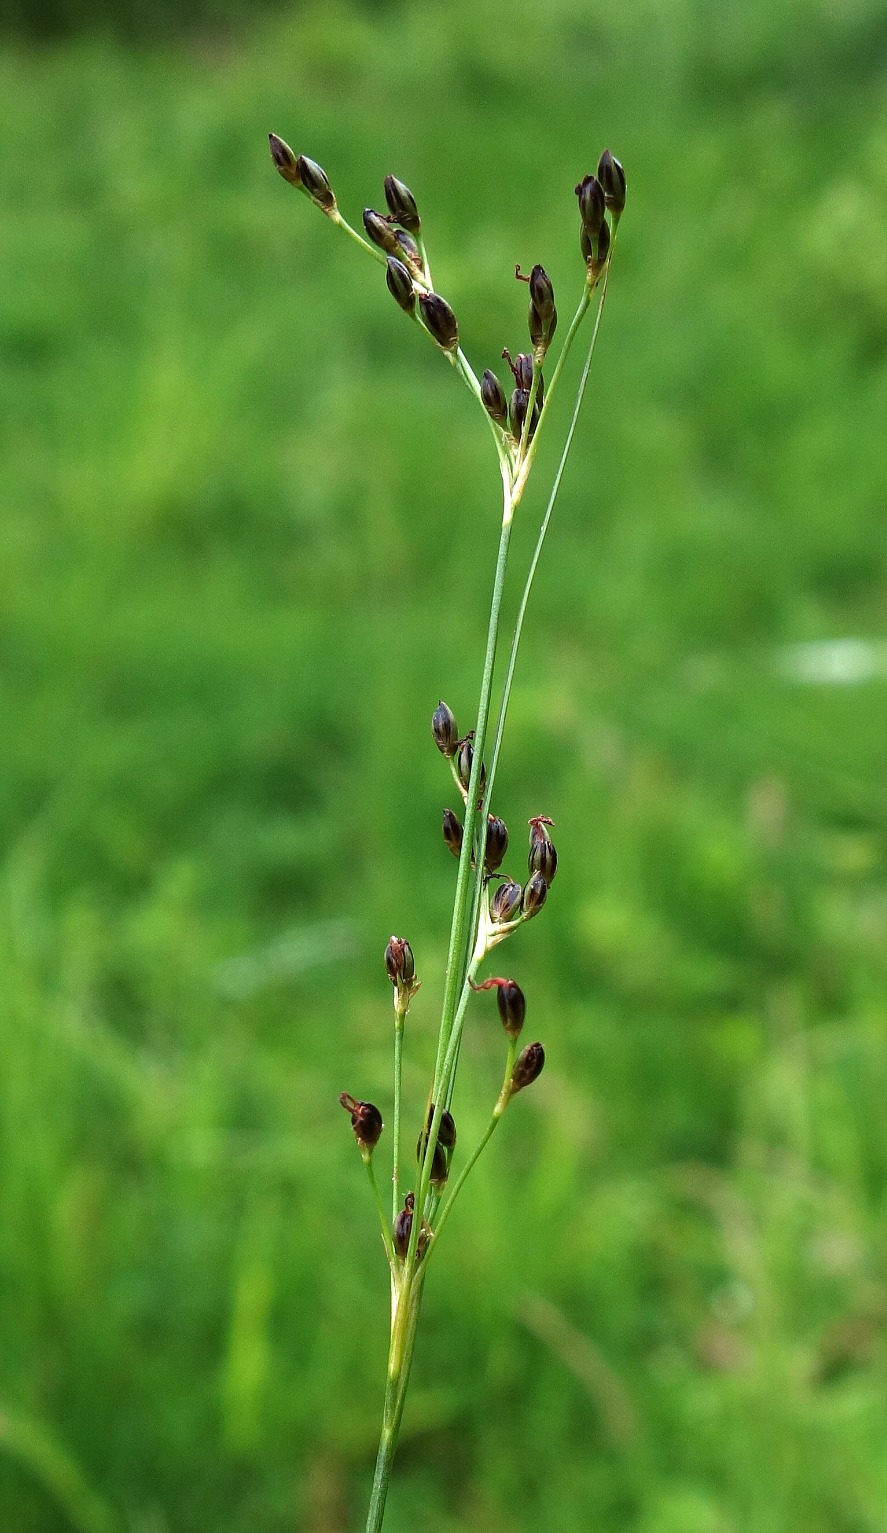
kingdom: Plantae
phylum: Tracheophyta
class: Liliopsida
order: Poales
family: Juncaceae
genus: Juncus
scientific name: Juncus gerardi
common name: Harril
